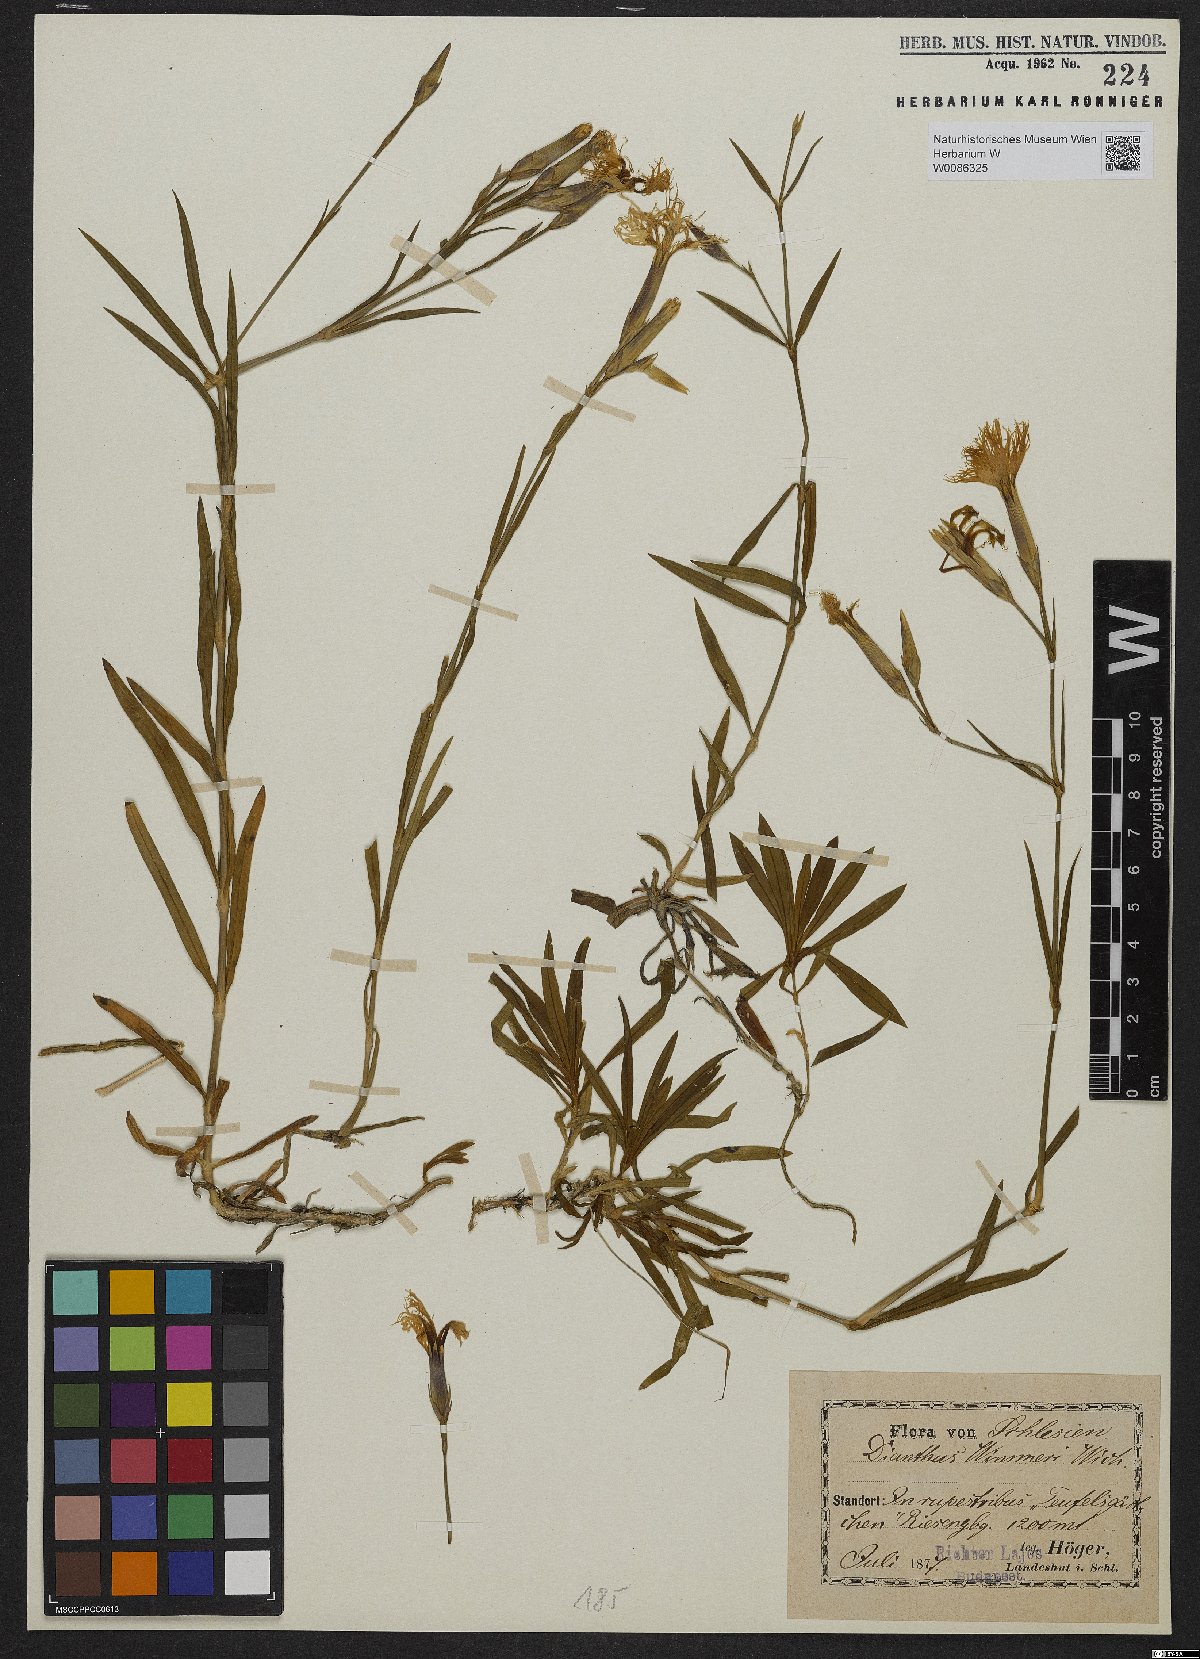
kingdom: Plantae
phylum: Tracheophyta
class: Magnoliopsida
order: Caryophyllales
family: Caryophyllaceae
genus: Dianthus
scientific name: Dianthus superbus
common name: Fringed pink
